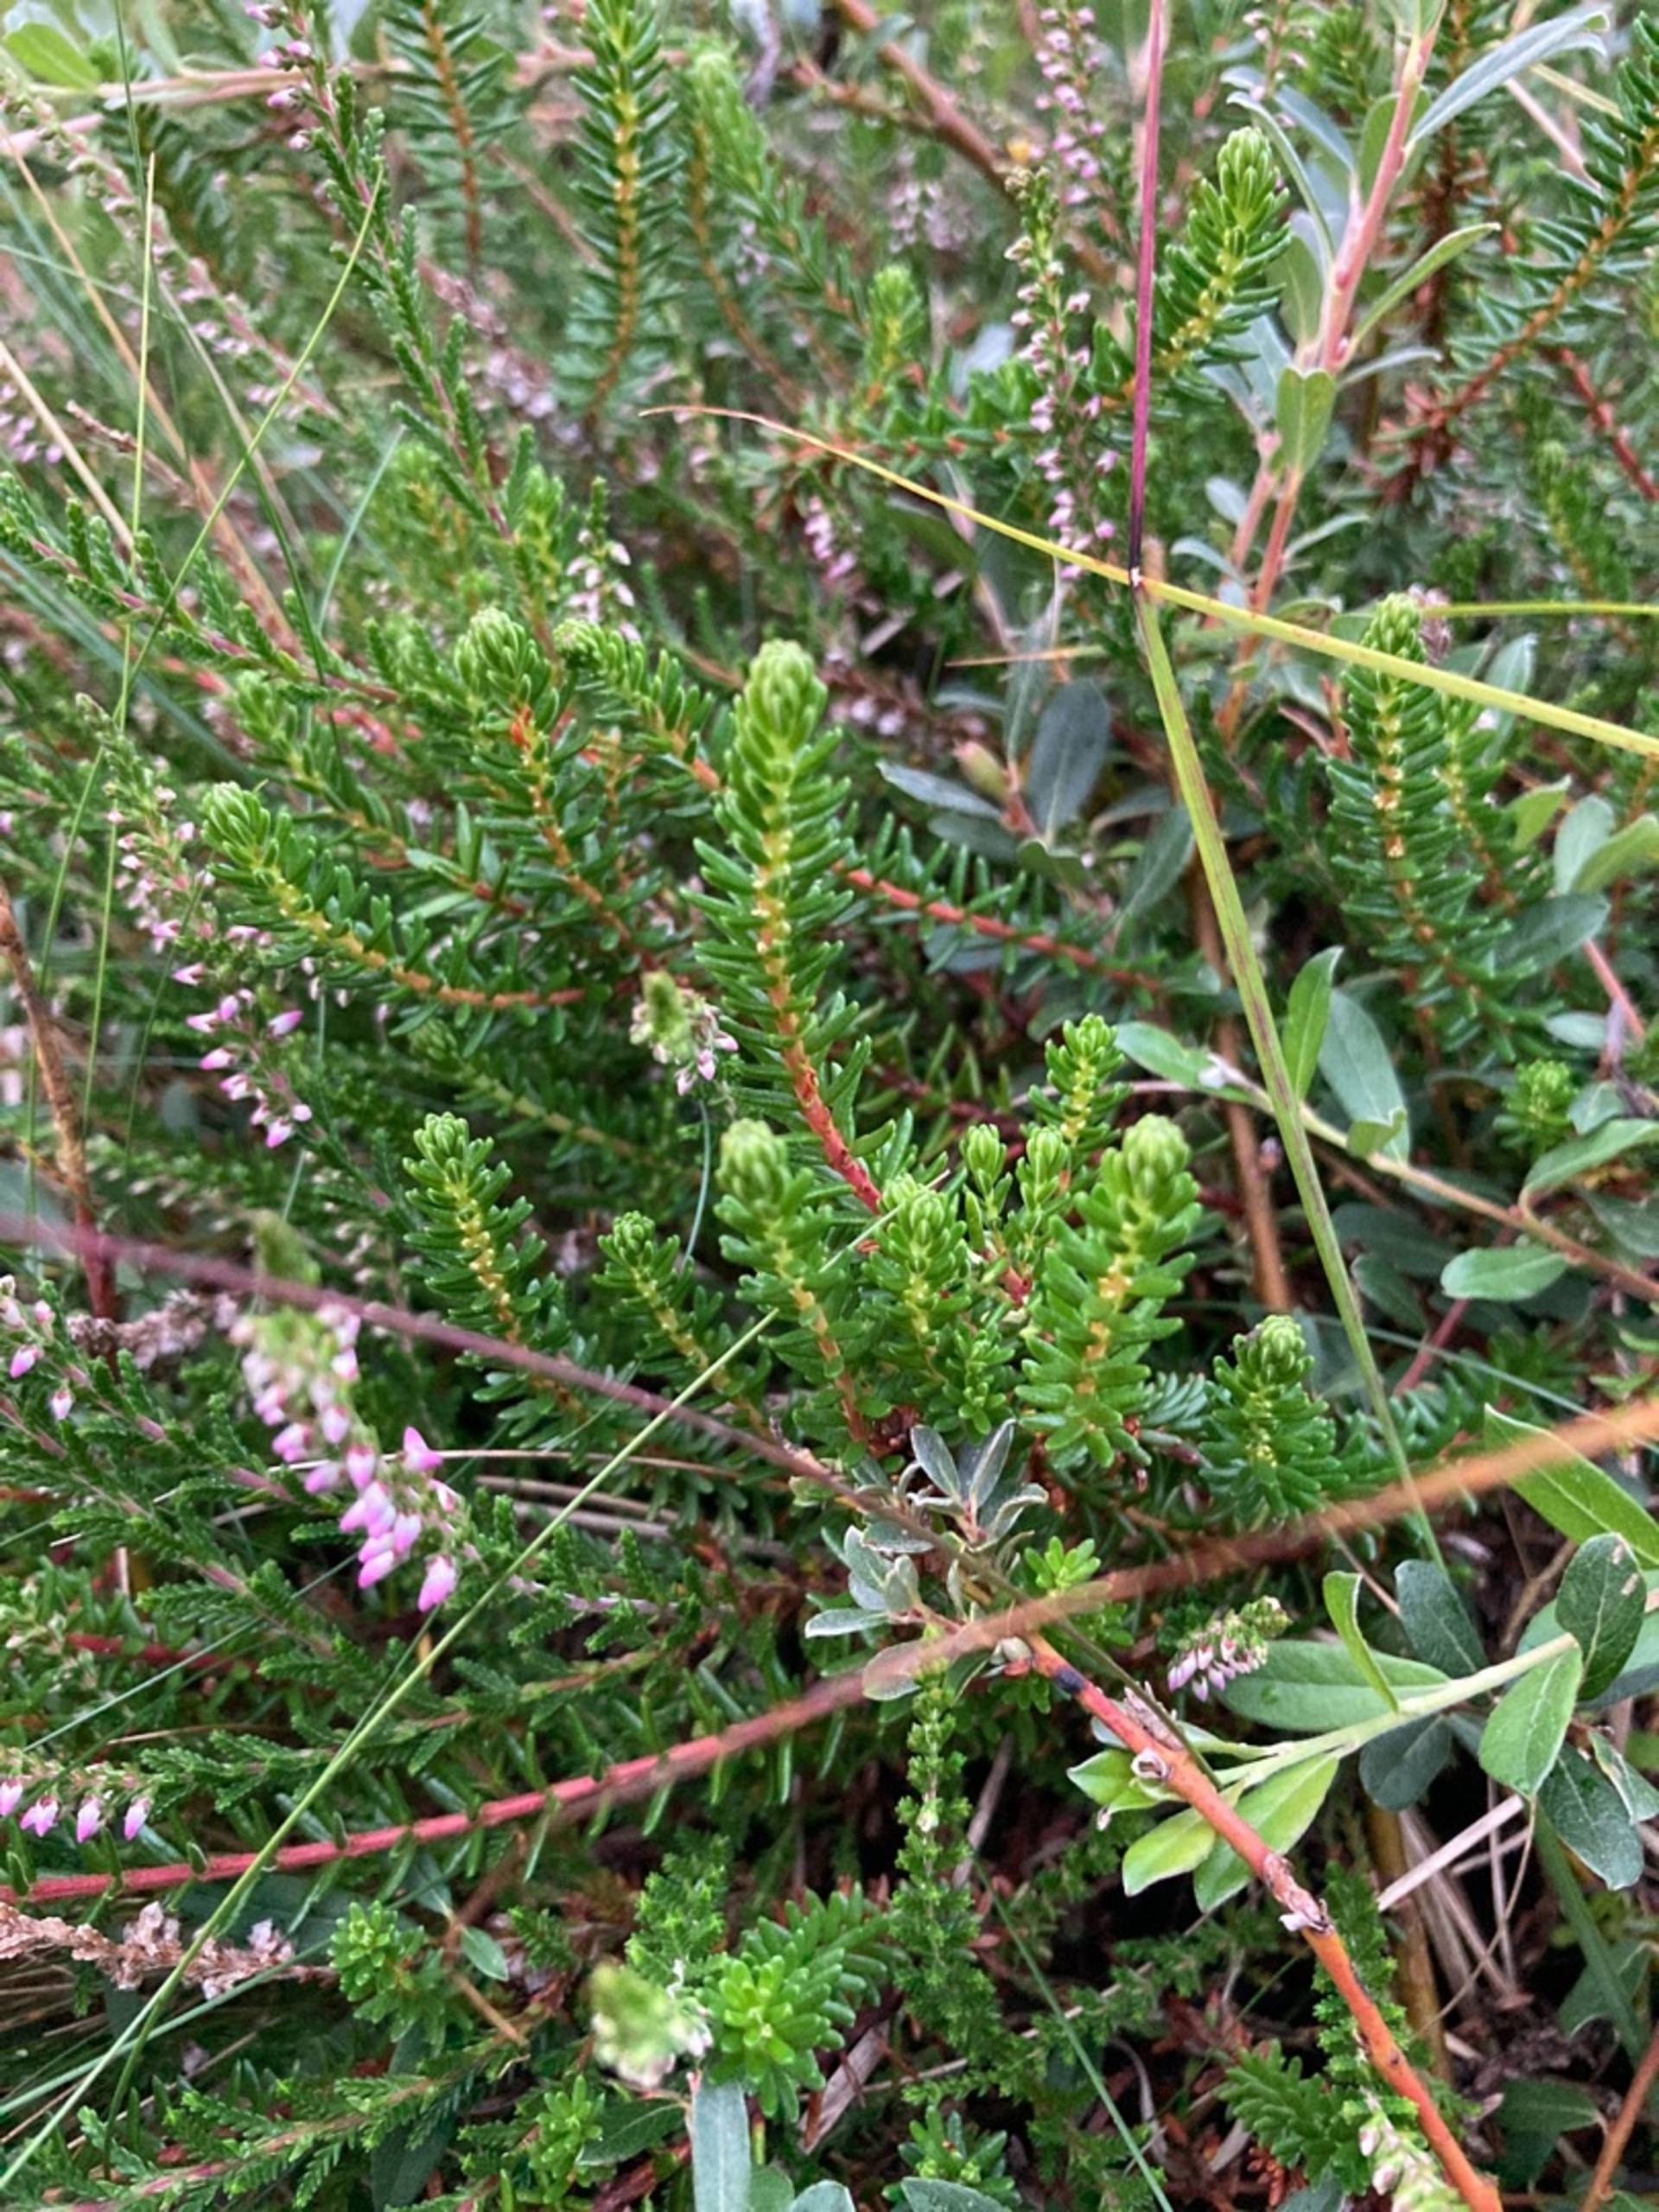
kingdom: Plantae
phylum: Tracheophyta
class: Magnoliopsida
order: Ericales
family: Ericaceae
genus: Empetrum
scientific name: Empetrum nigrum
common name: Revling
